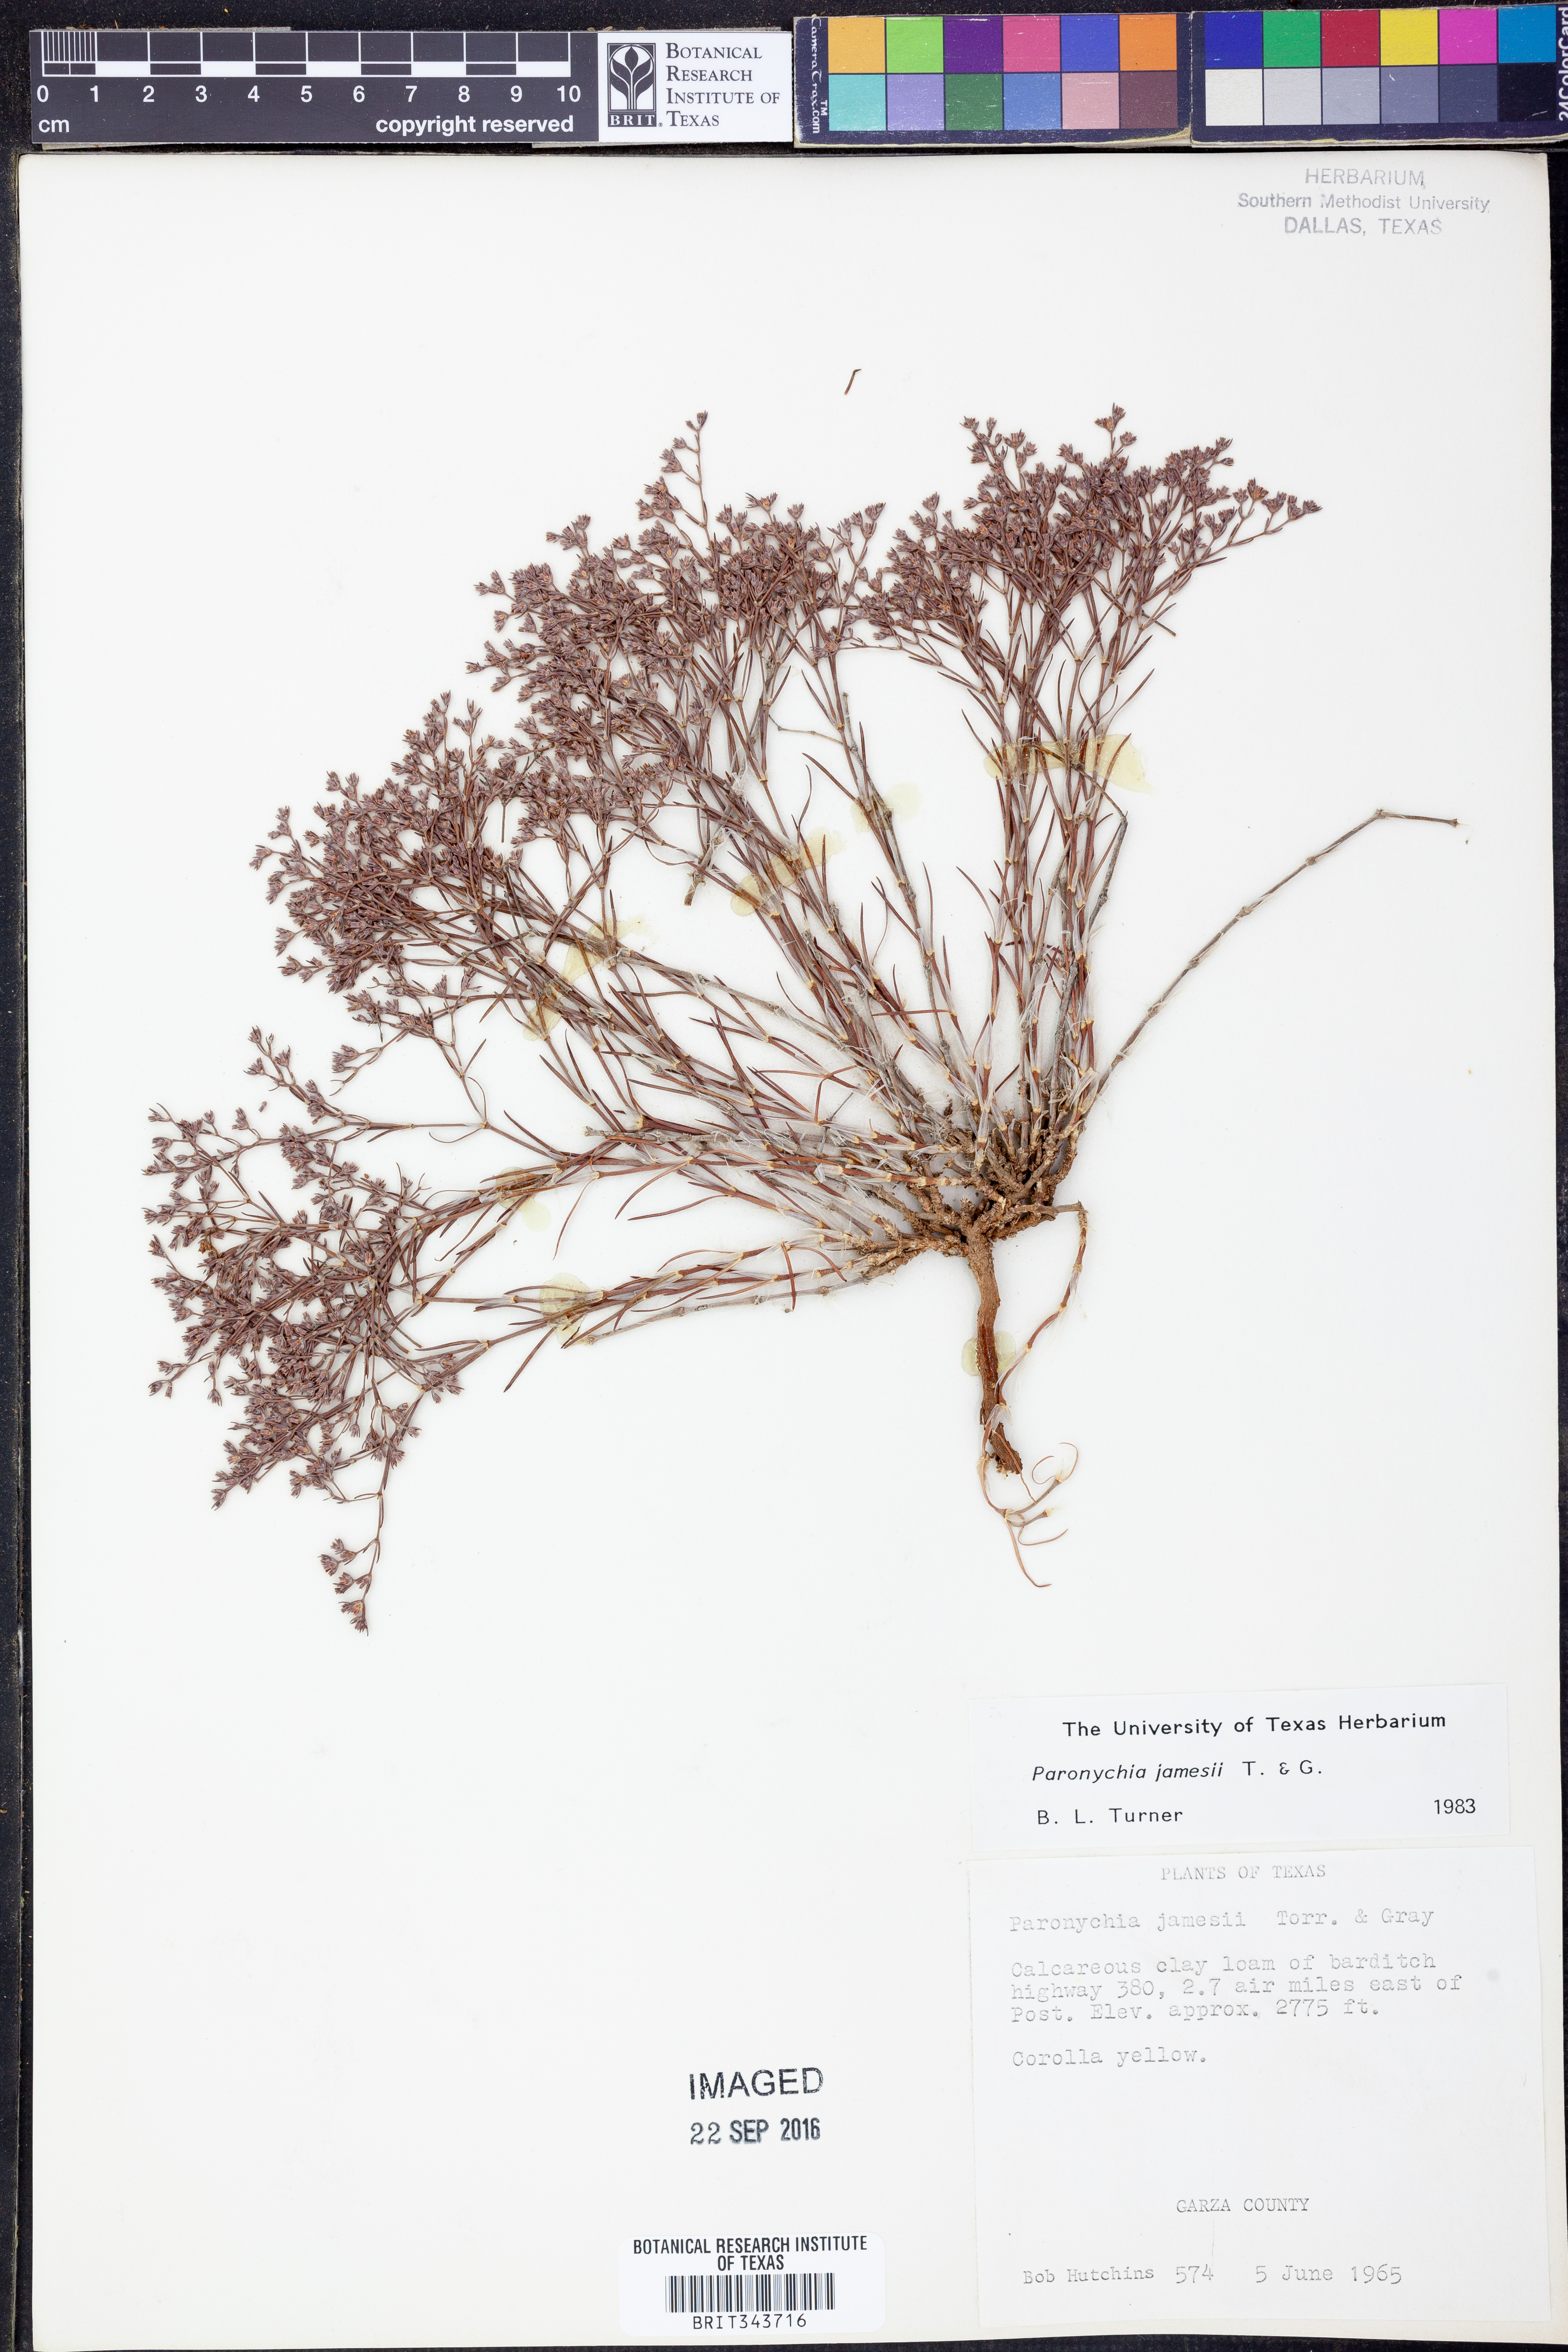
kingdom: Plantae
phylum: Tracheophyta
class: Magnoliopsida
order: Caryophyllales
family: Caryophyllaceae
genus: Paronychia
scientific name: Paronychia jamesii
